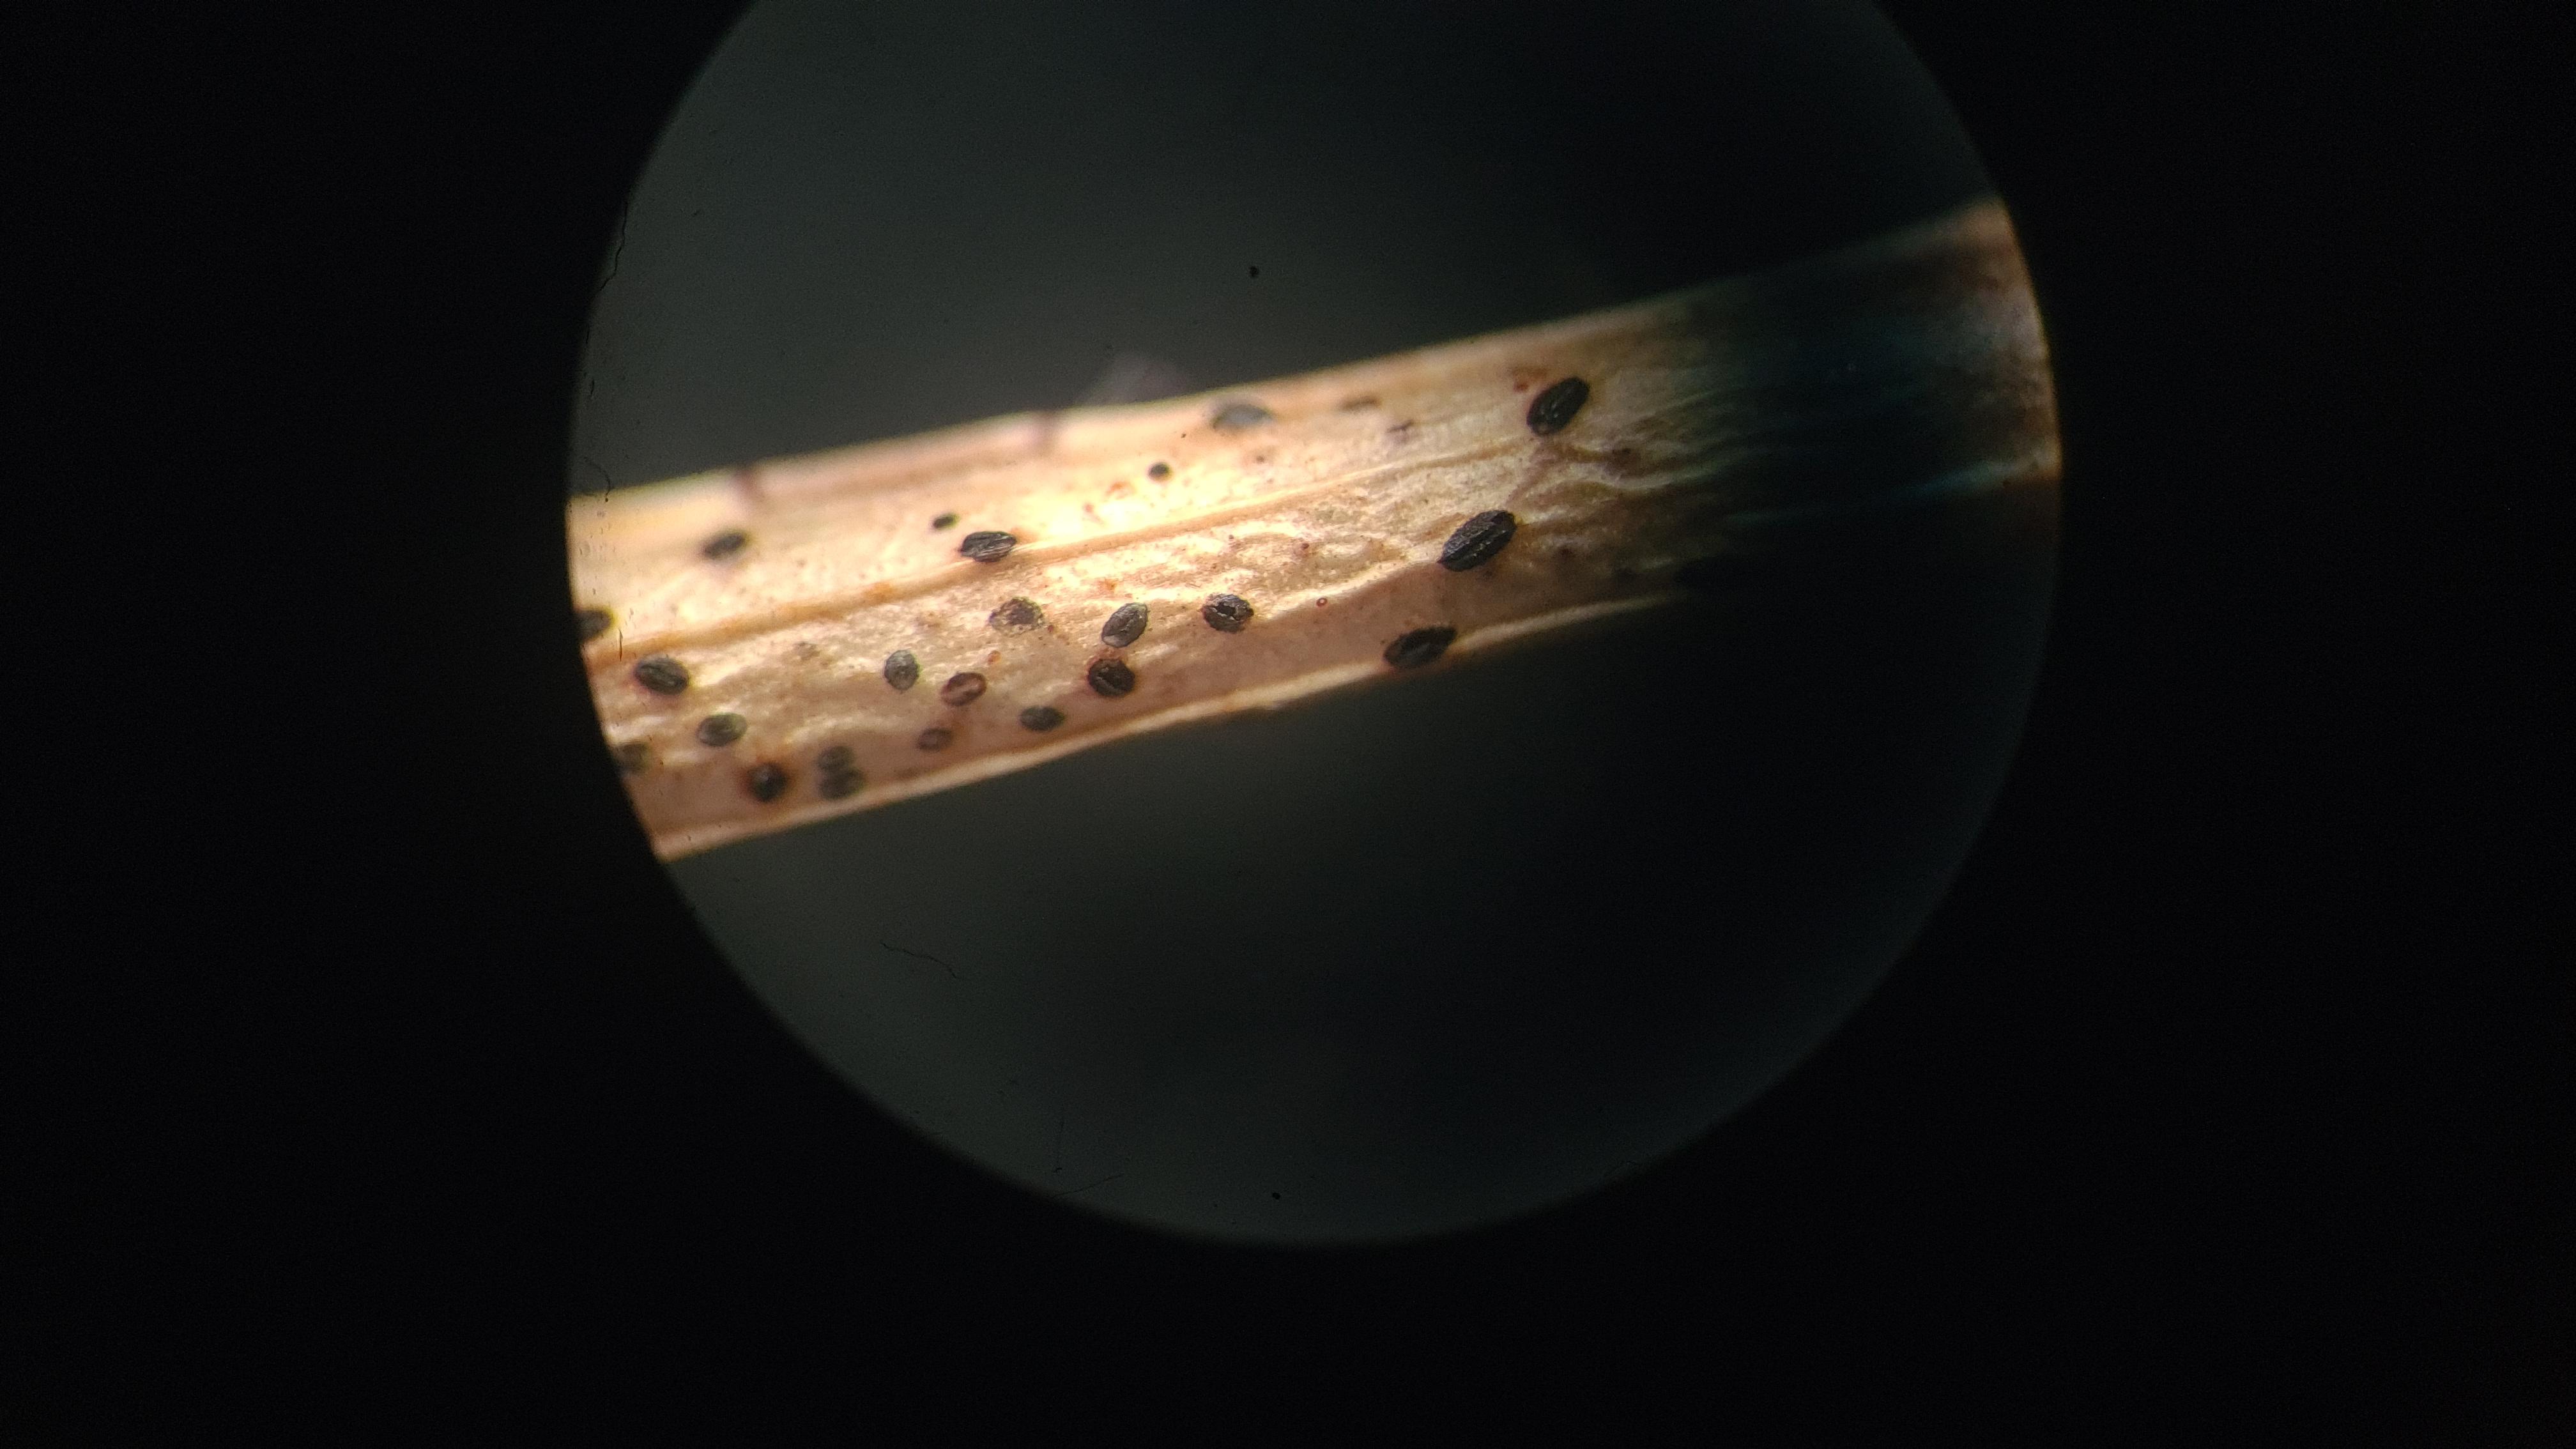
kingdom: Fungi
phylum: Ascomycota
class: Leotiomycetes
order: Rhytismatales
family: Rhytismataceae
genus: Terriera
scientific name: Terriera cladophila
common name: blåbær-fureplet
